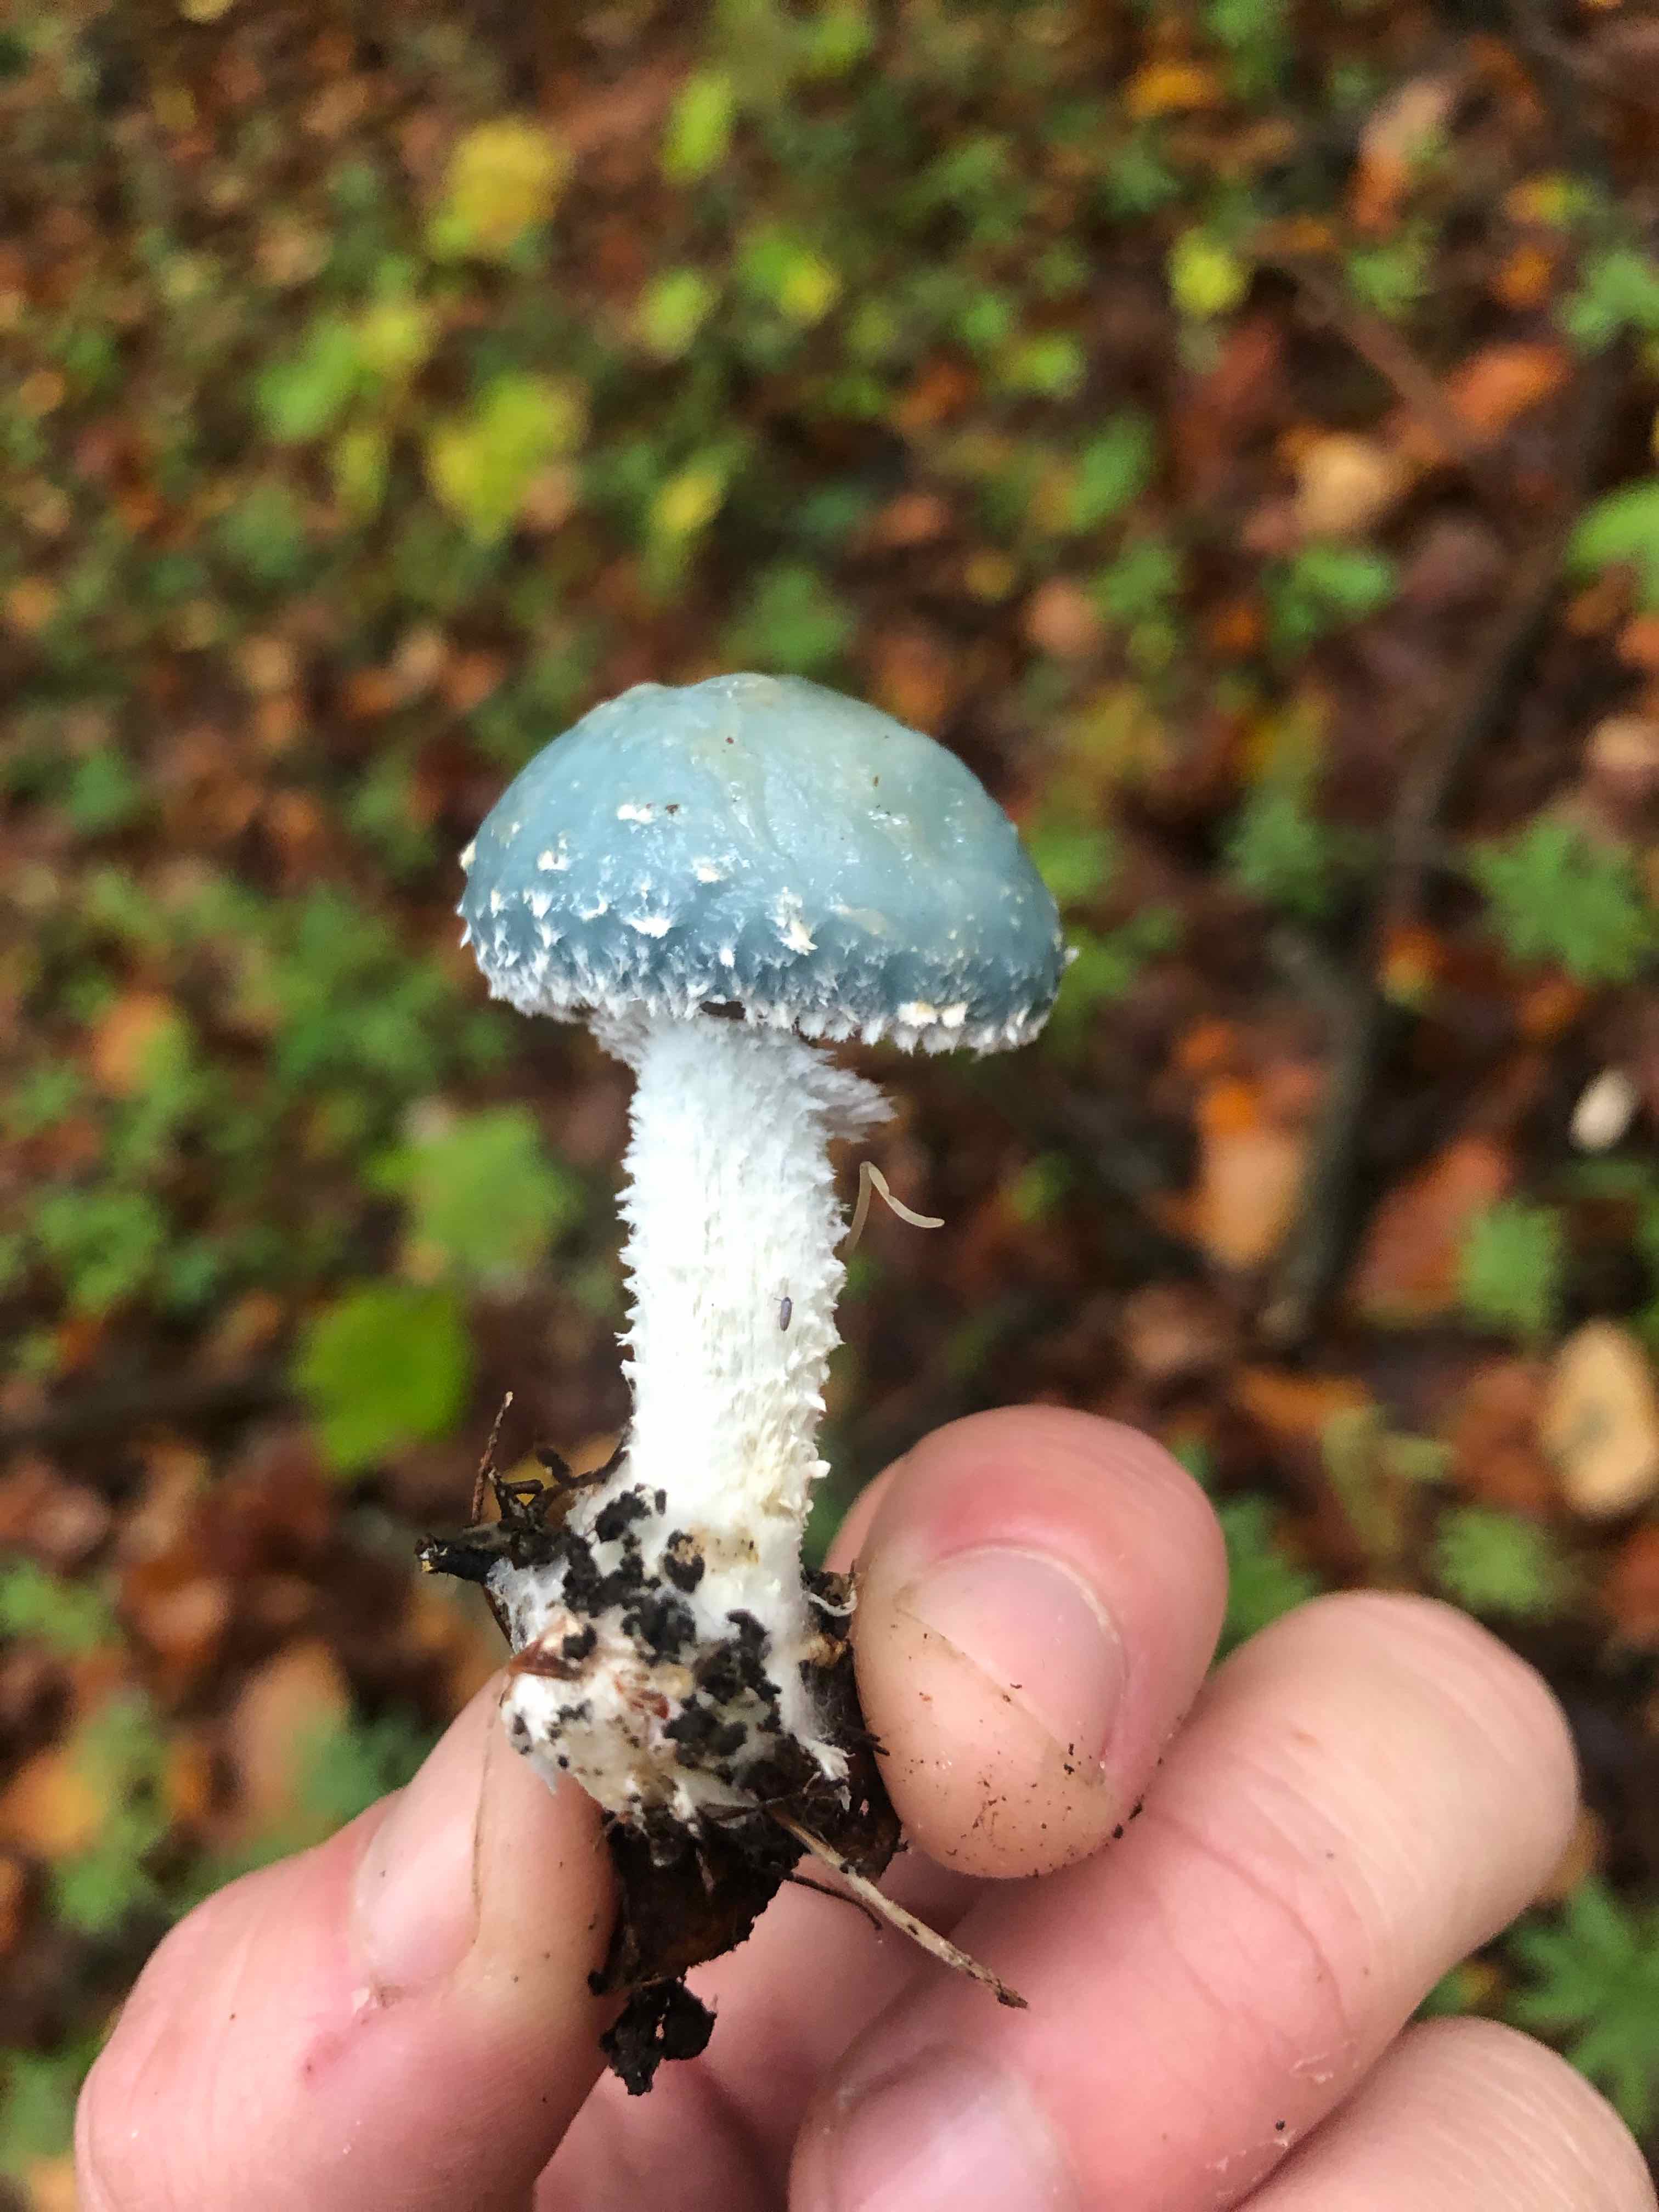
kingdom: Fungi
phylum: Basidiomycota
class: Agaricomycetes
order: Agaricales
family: Strophariaceae
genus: Stropharia
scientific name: Stropharia aeruginosa
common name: spanskgrøn bredblad
